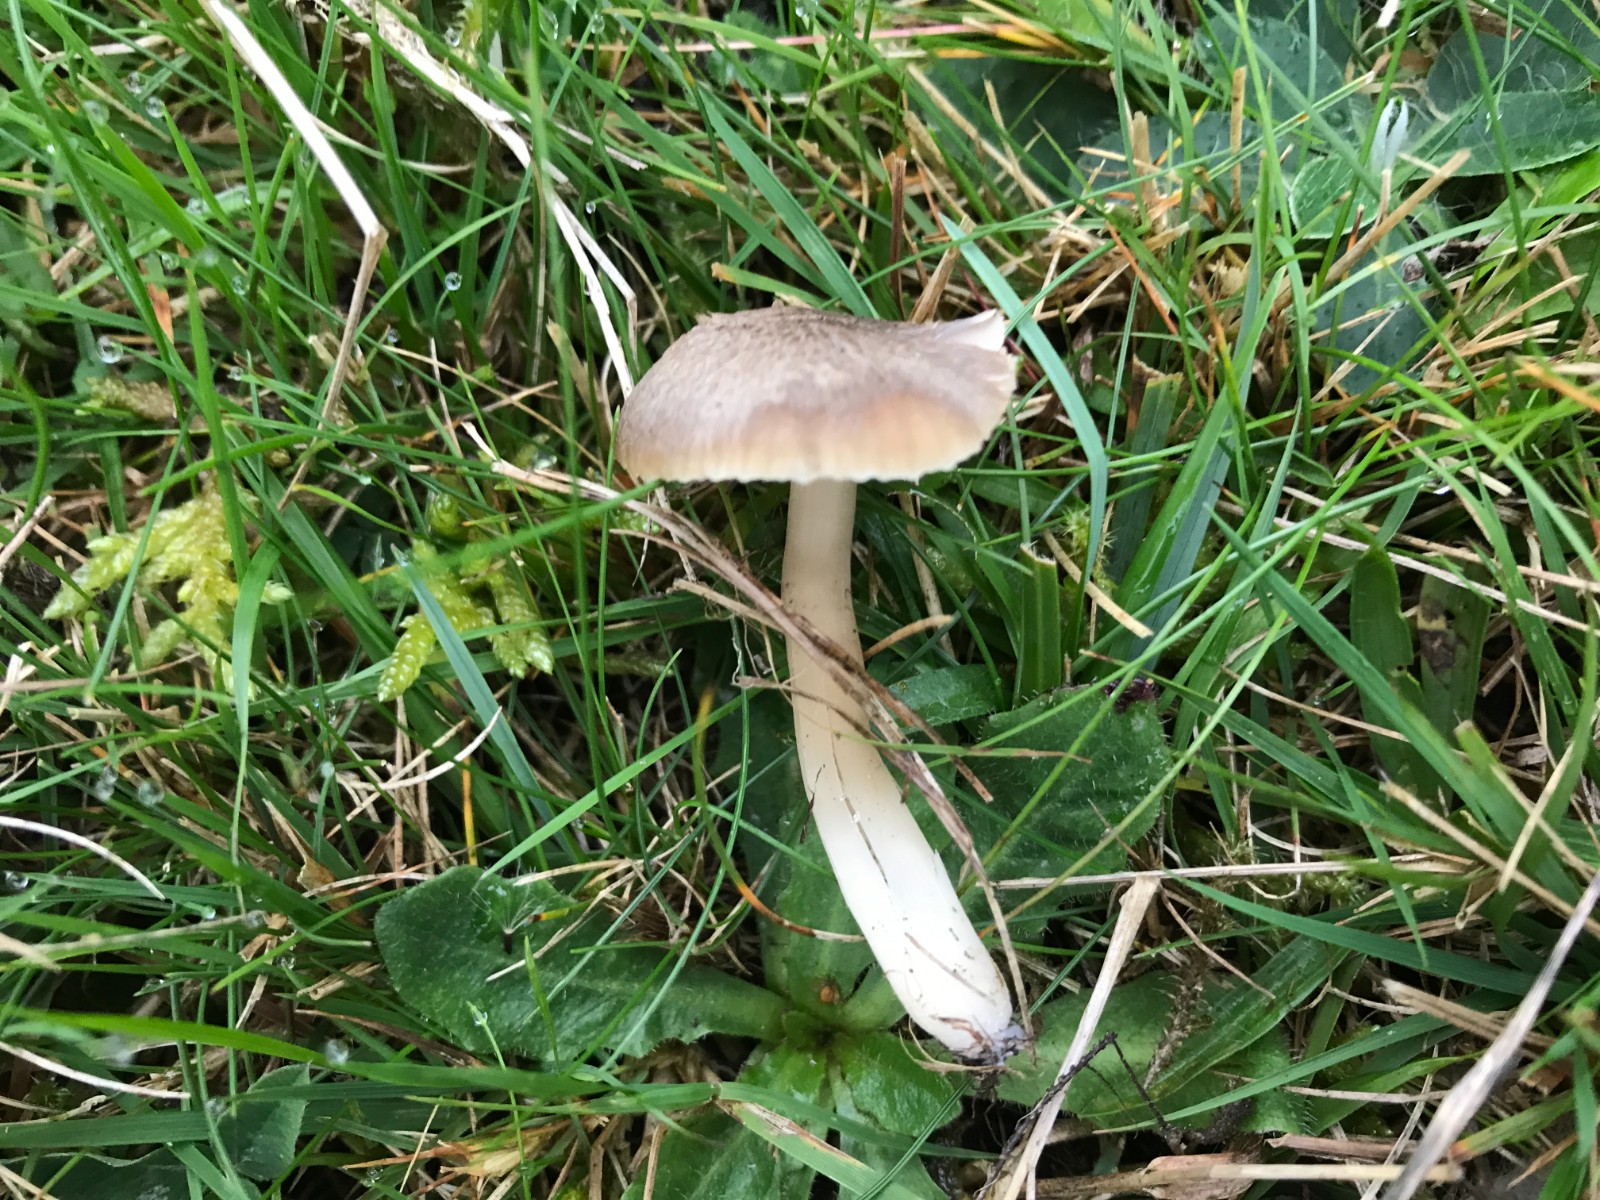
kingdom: Fungi
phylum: Basidiomycota
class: Agaricomycetes
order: Agaricales
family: Hygrophoraceae
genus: Neohygrocybe
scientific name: Neohygrocybe nitrata
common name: stinkende vokshat
